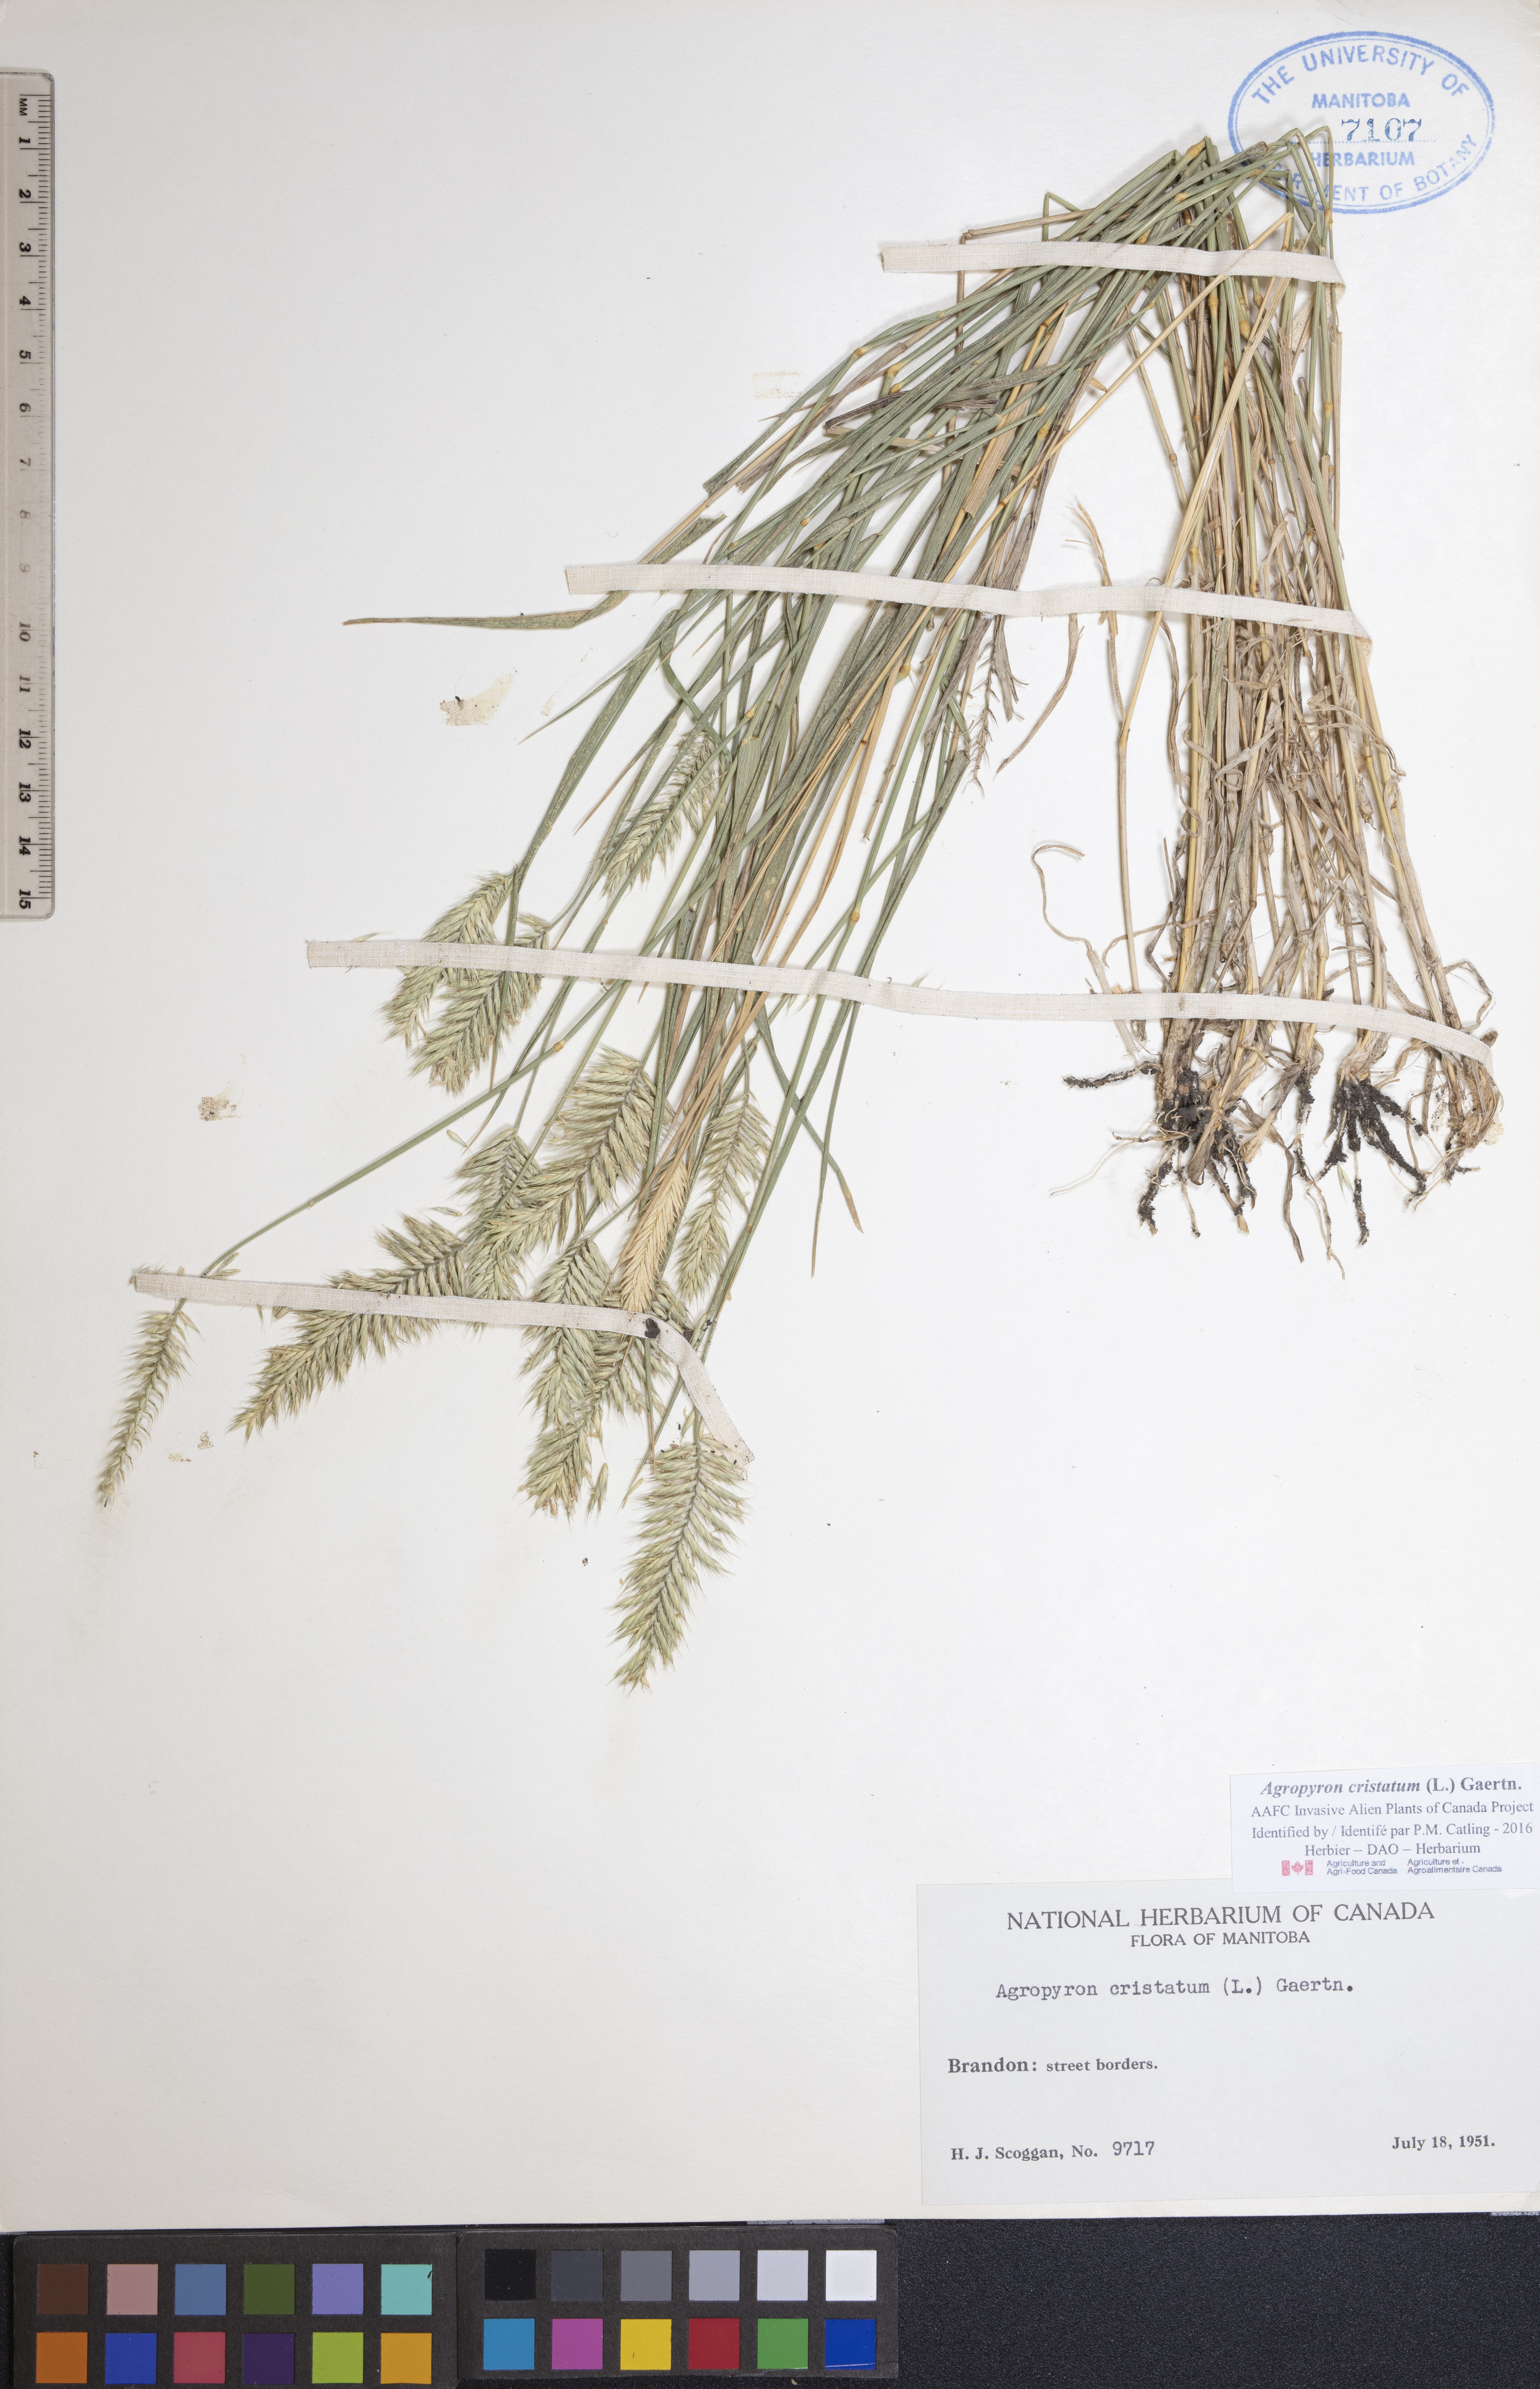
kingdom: Plantae
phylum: Tracheophyta
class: Liliopsida
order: Poales
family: Poaceae
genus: Agropyron
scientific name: Agropyron cristatum
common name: Crested wheatgrass
